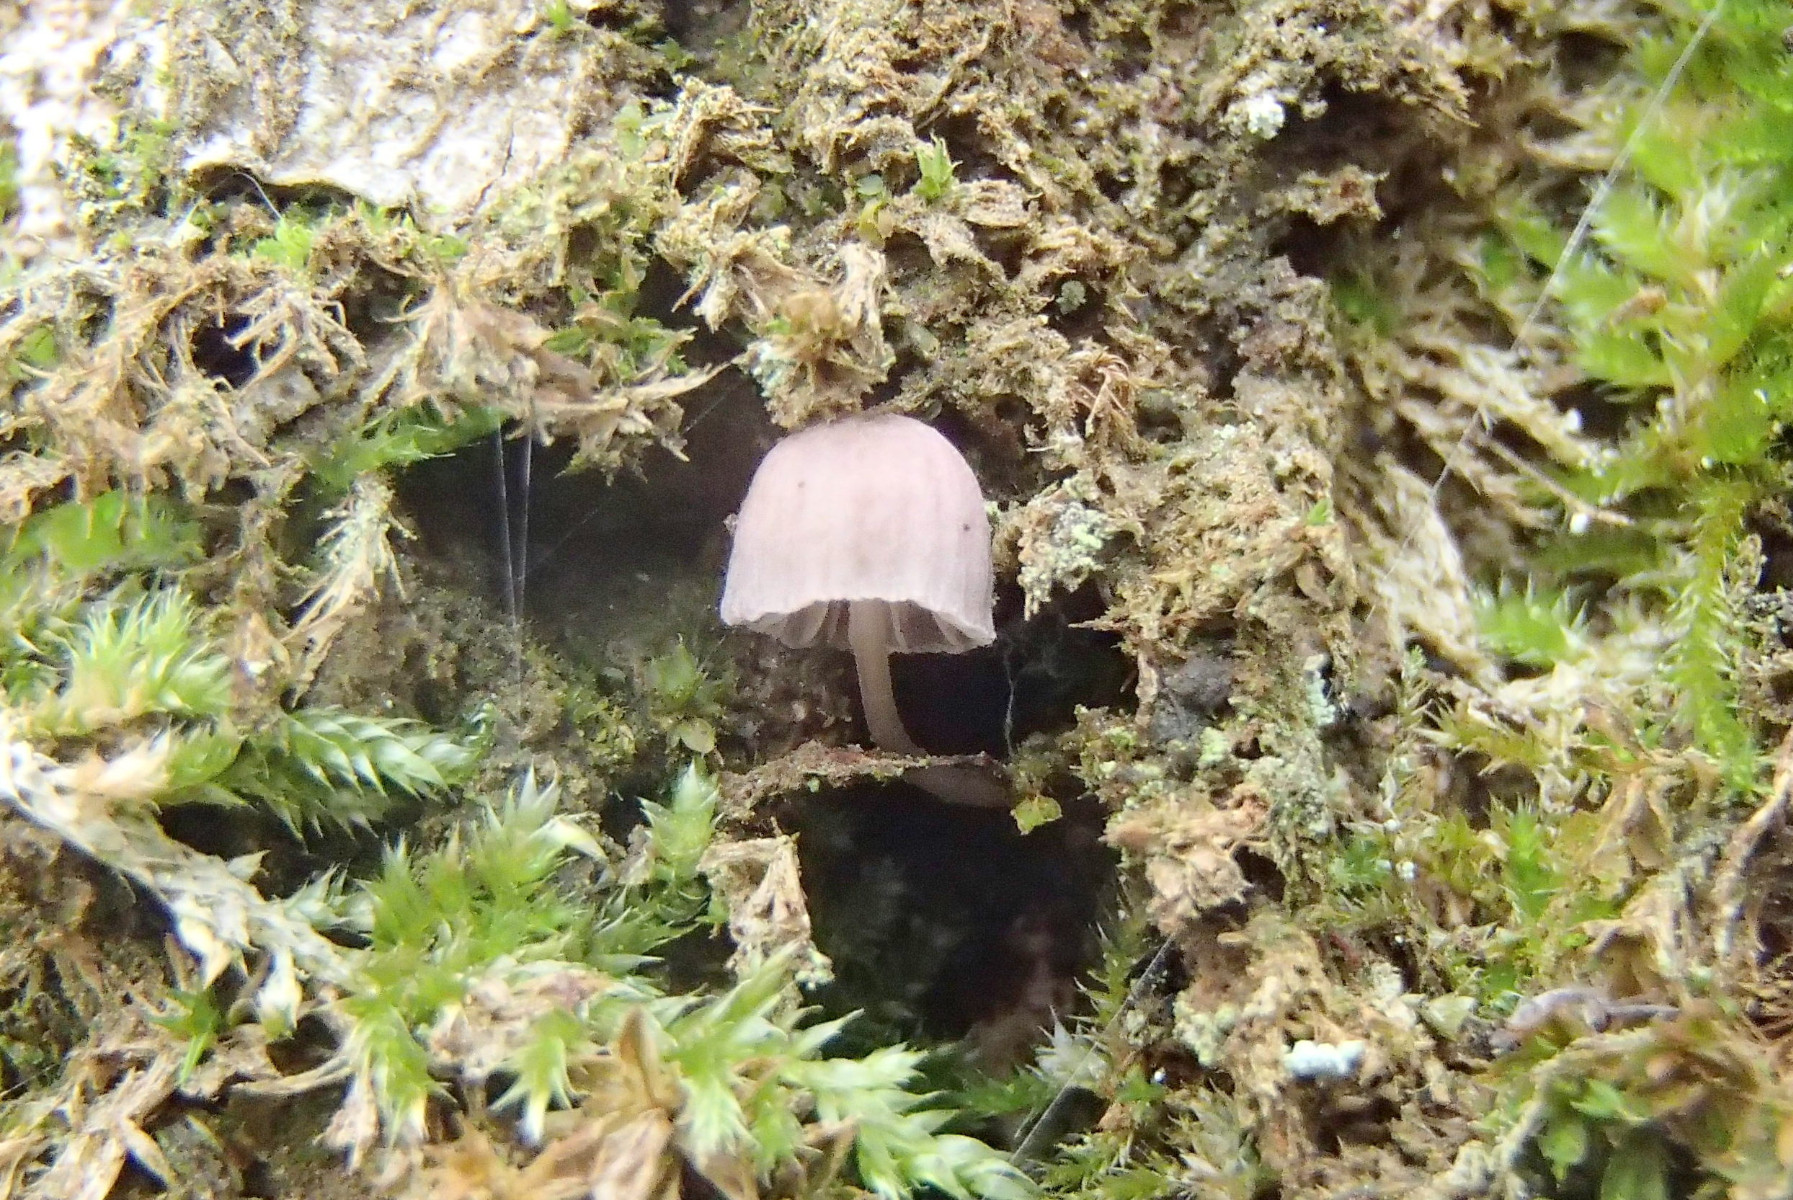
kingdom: Fungi
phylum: Basidiomycota
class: Agaricomycetes
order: Agaricales
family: Mycenaceae
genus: Mycena
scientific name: Mycena pseudocorticola
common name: gråblå bark-huesvamp
